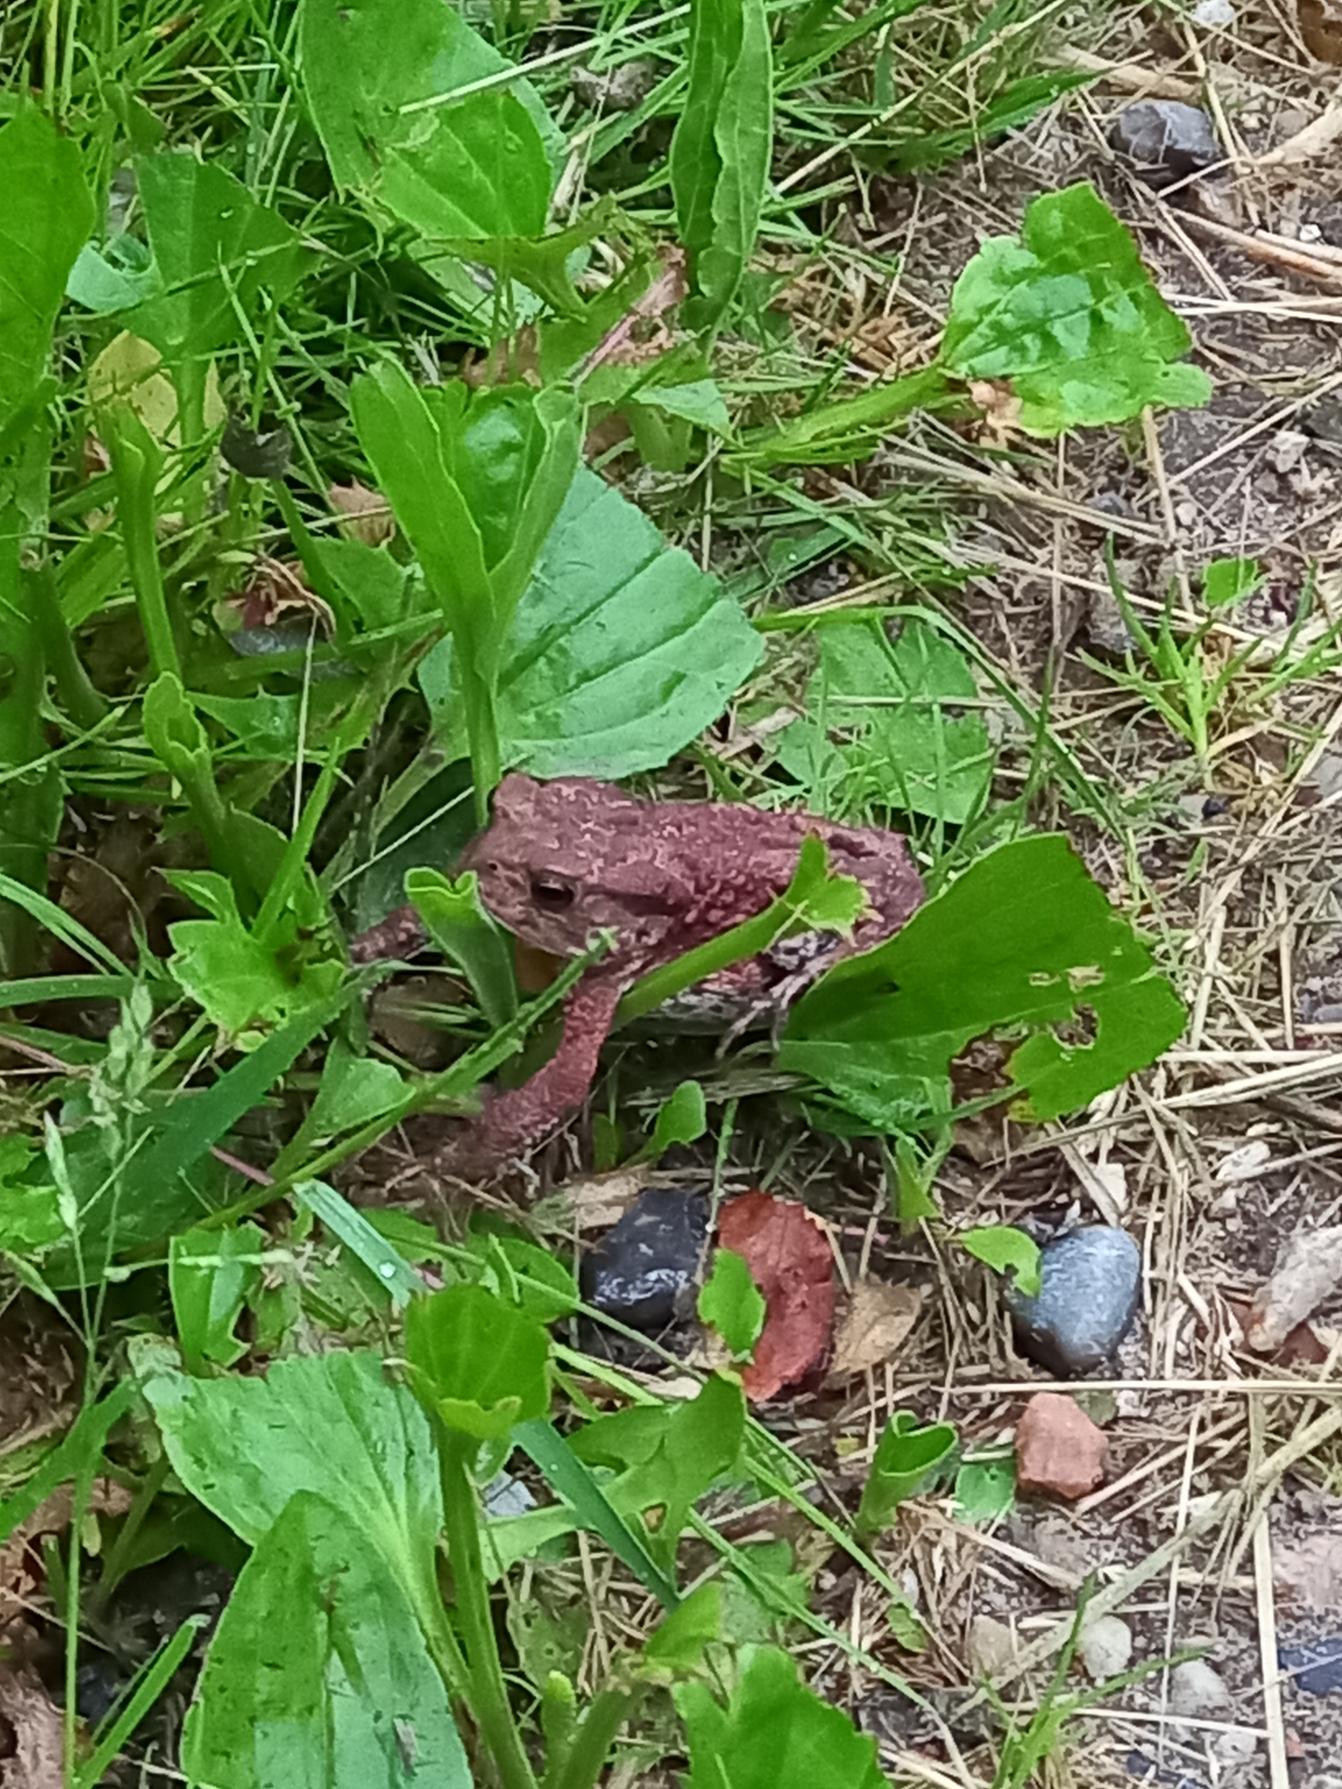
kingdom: Animalia
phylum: Chordata
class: Amphibia
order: Anura
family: Bufonidae
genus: Bufo
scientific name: Bufo bufo
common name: Skrubtudse
